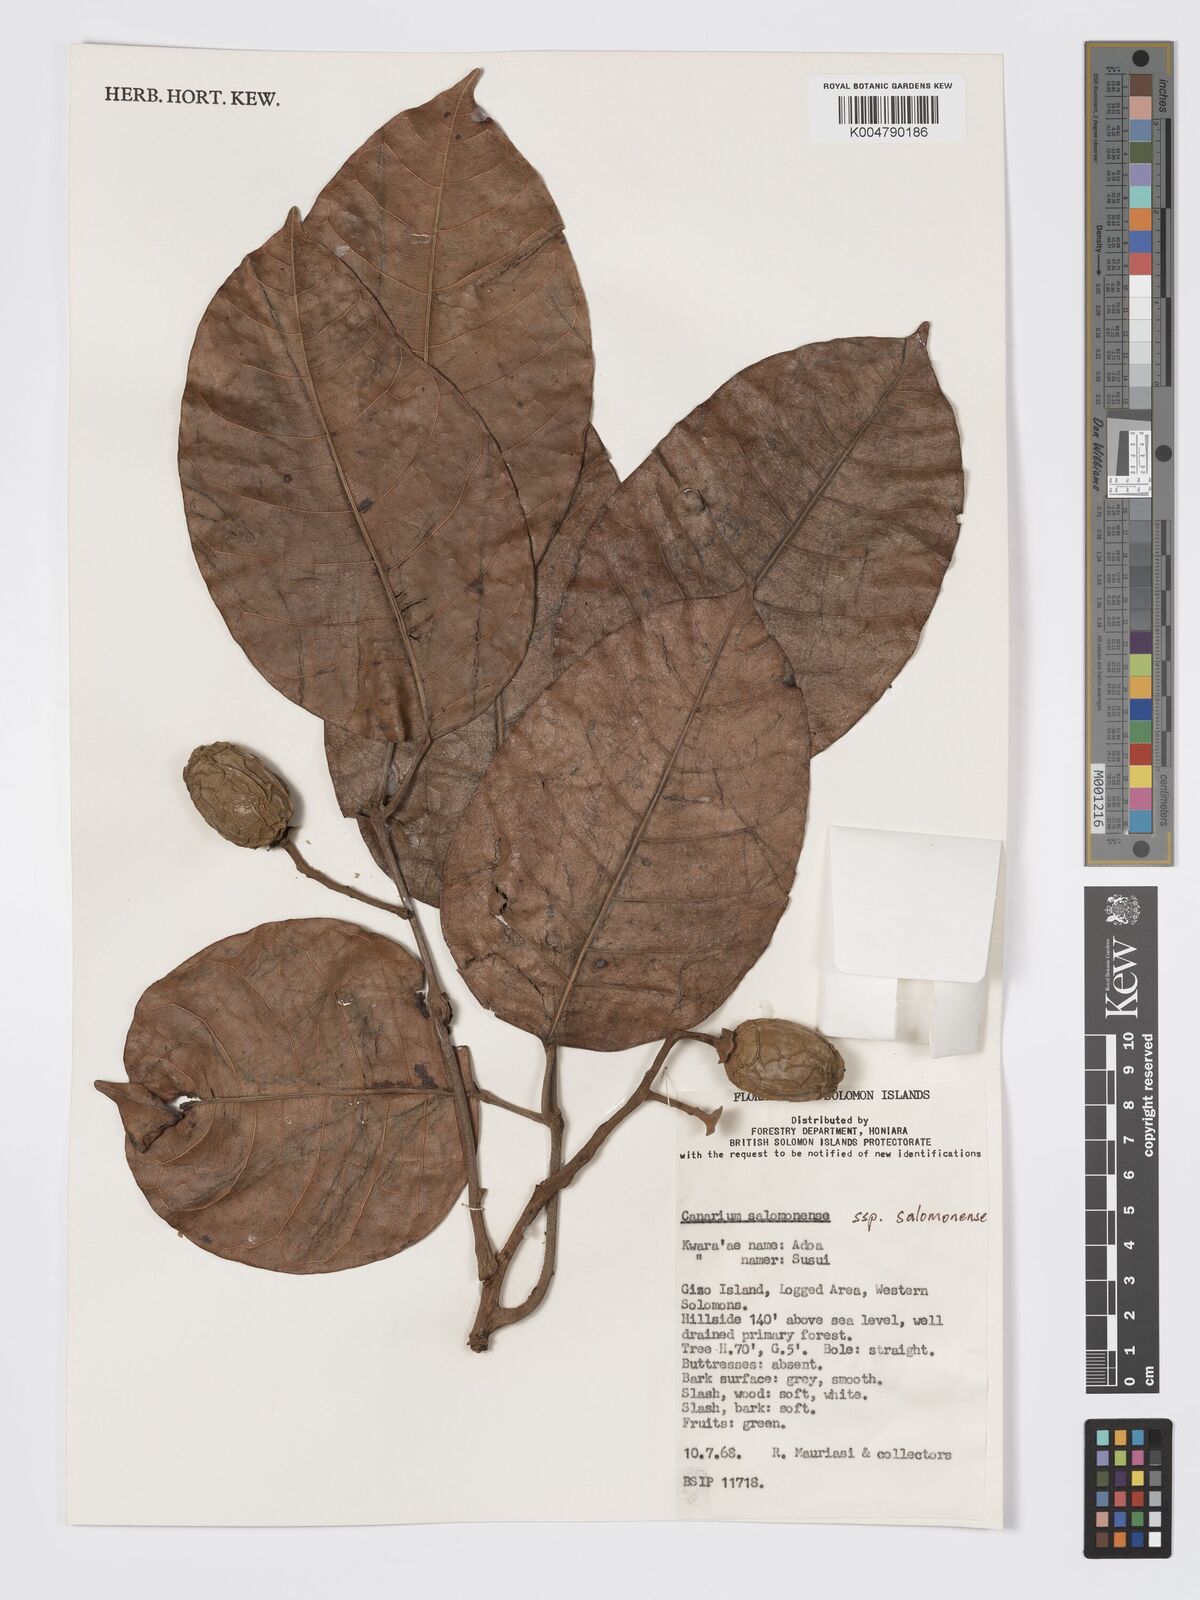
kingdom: Plantae
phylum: Tracheophyta
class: Magnoliopsida
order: Sapindales
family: Burseraceae
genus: Canarium
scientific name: Canarium salomonense
